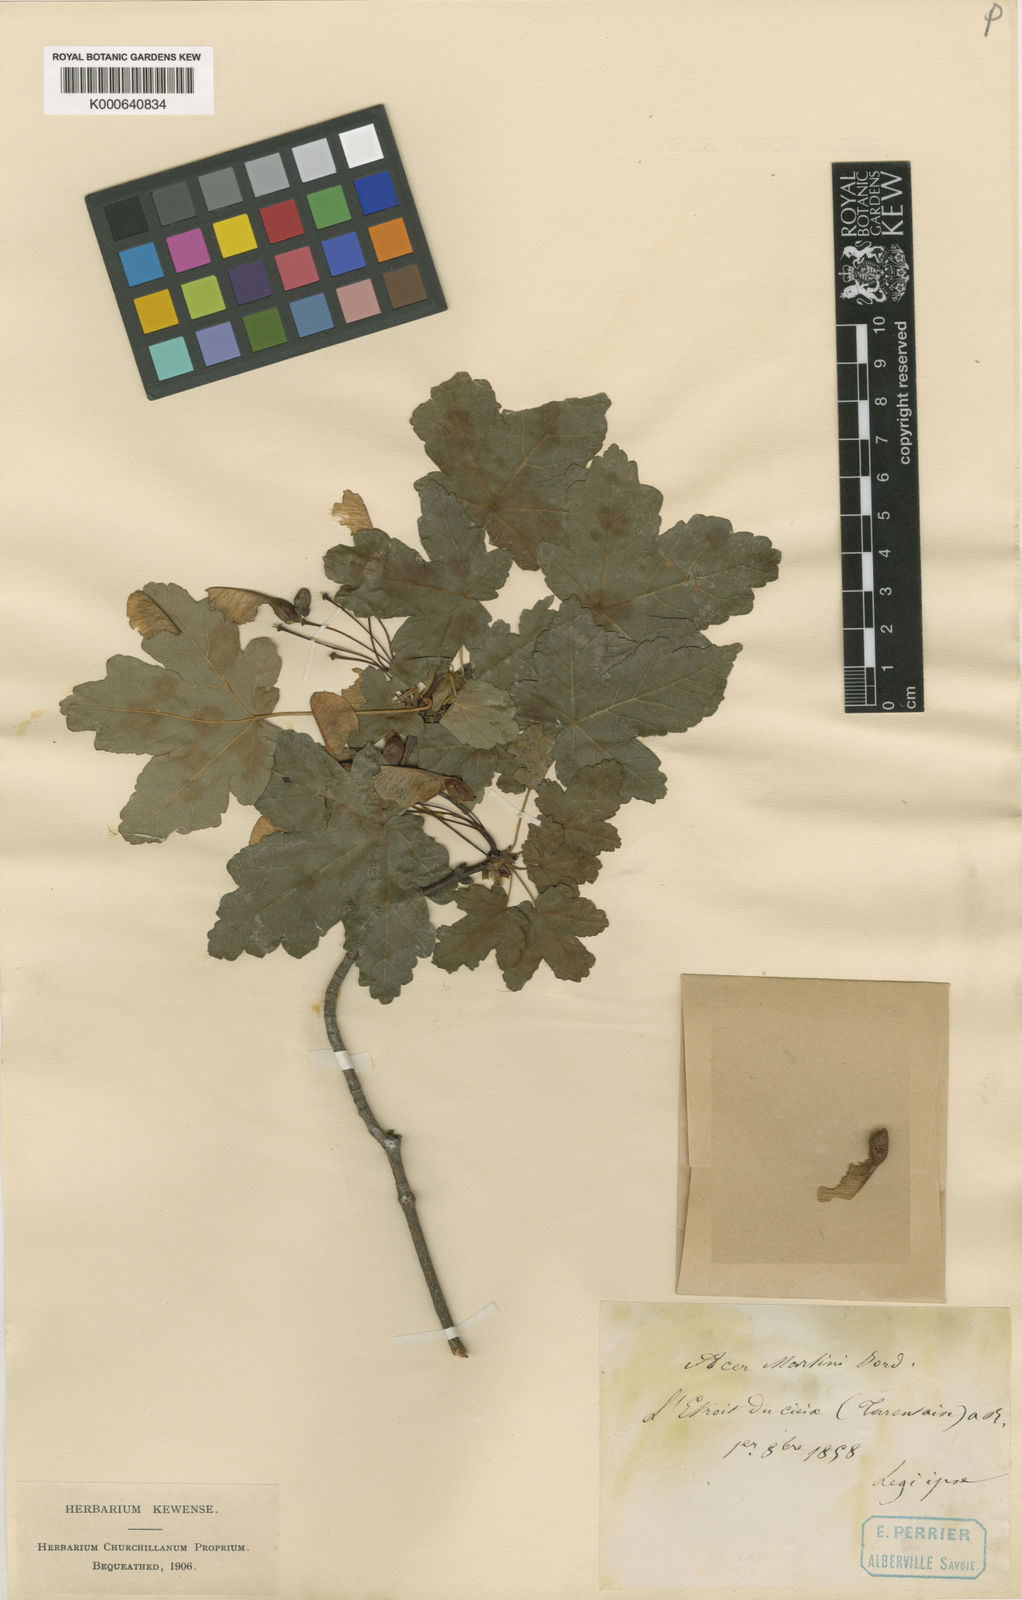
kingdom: Plantae
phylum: Tracheophyta
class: Magnoliopsida
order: Sapindales
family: Sapindaceae
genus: Acer
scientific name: Acer opalus
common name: Italian maple
